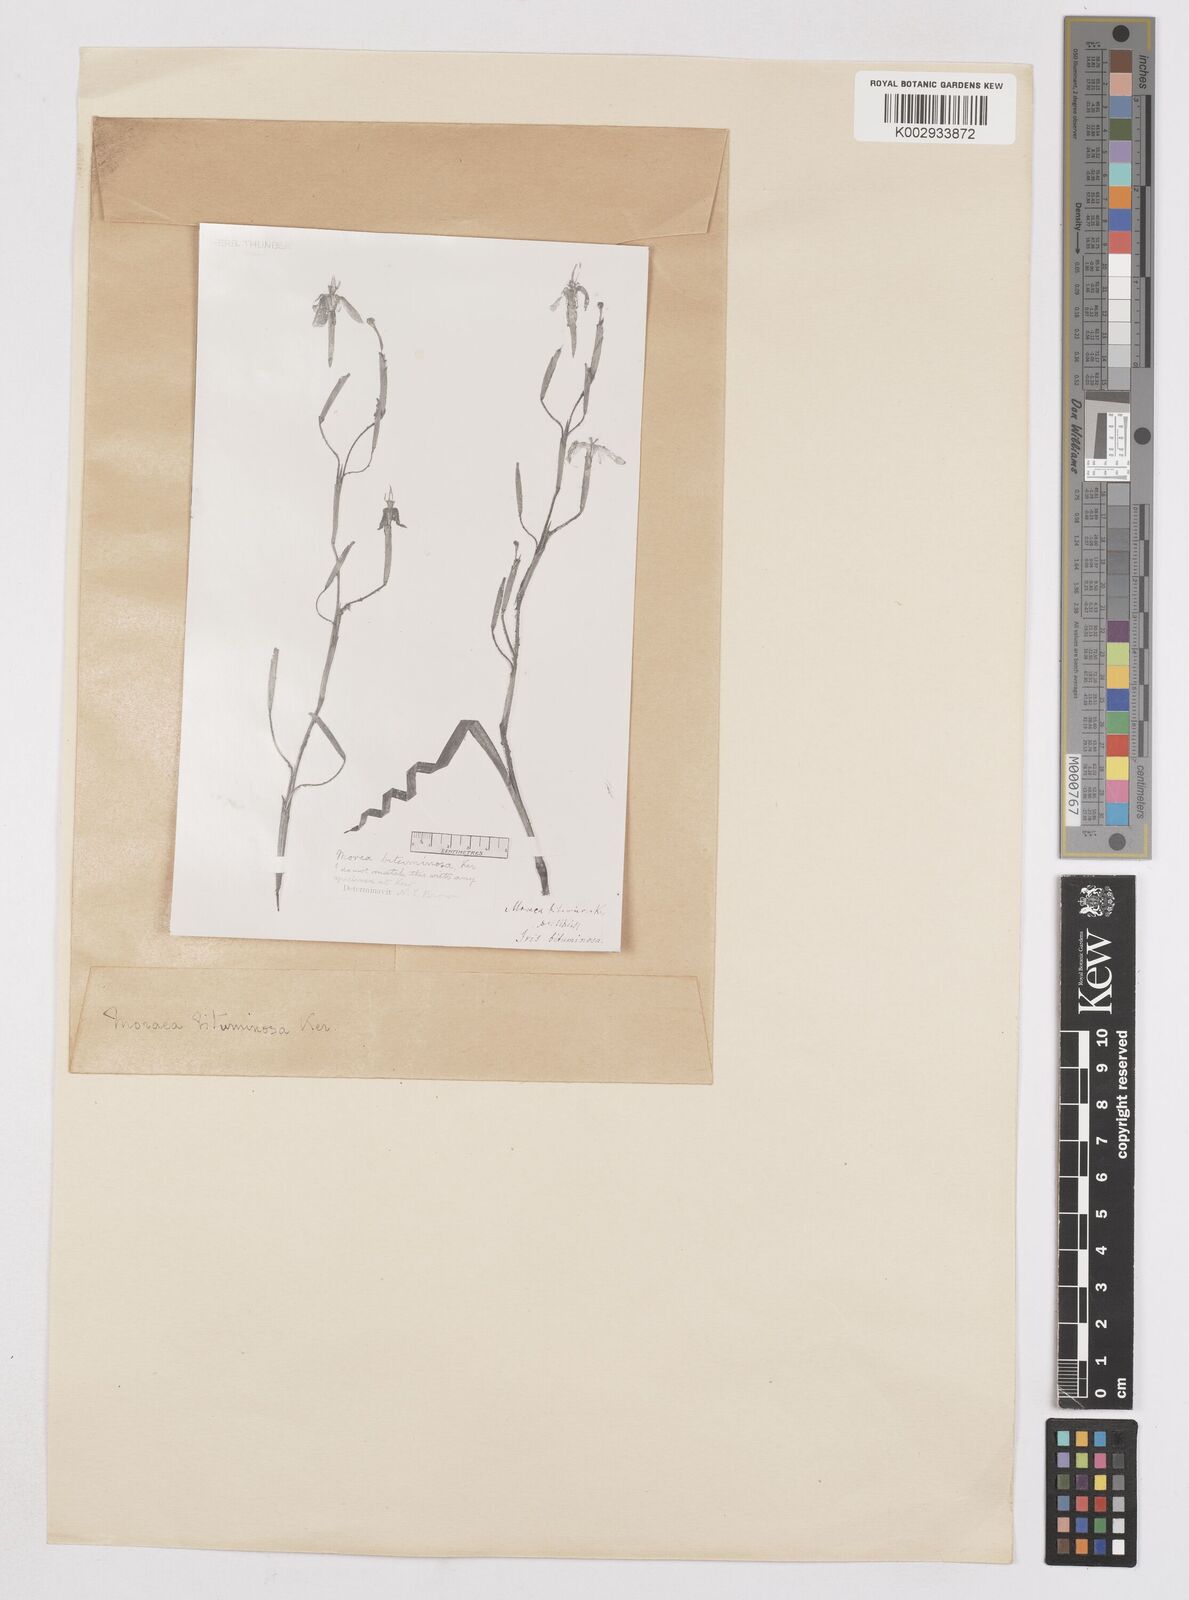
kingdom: Plantae
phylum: Tracheophyta
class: Liliopsida
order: Asparagales
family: Iridaceae
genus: Moraea
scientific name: Moraea bituminosa
